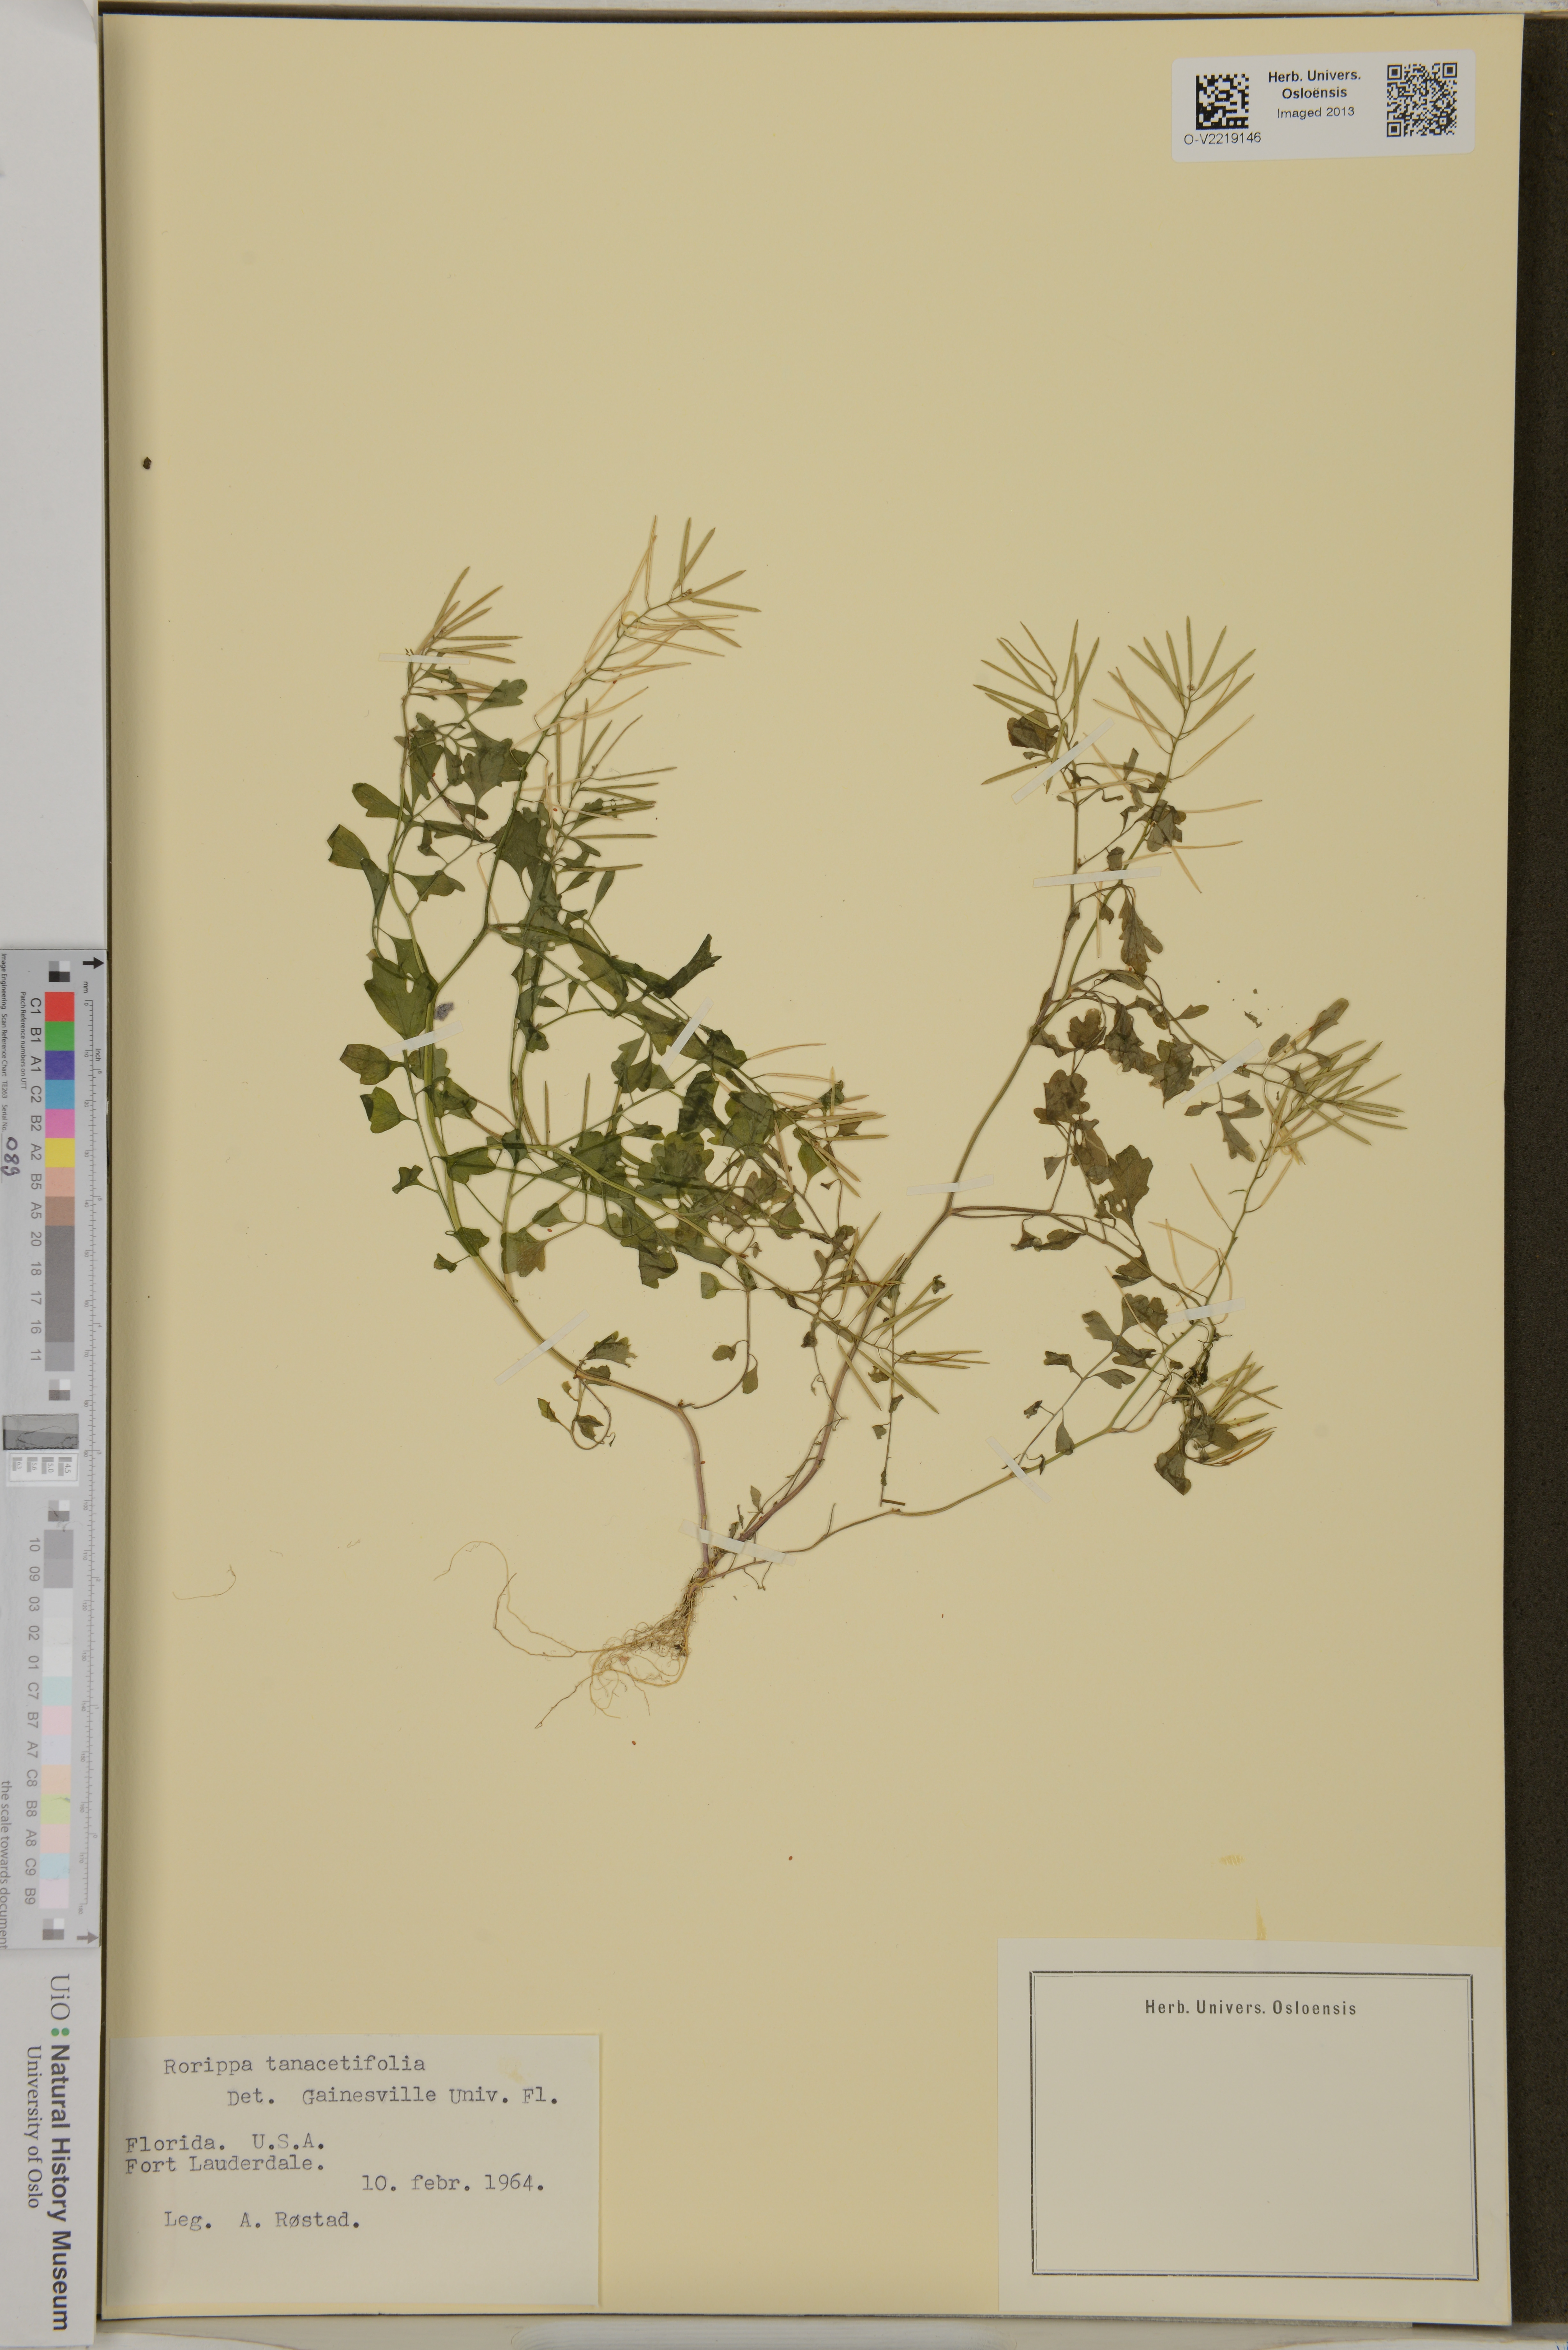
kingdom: Plantae
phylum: Tracheophyta
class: Magnoliopsida
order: Brassicales
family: Brassicaceae
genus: Rorippa
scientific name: Rorippa teres
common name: Southern marsh yellowcress
